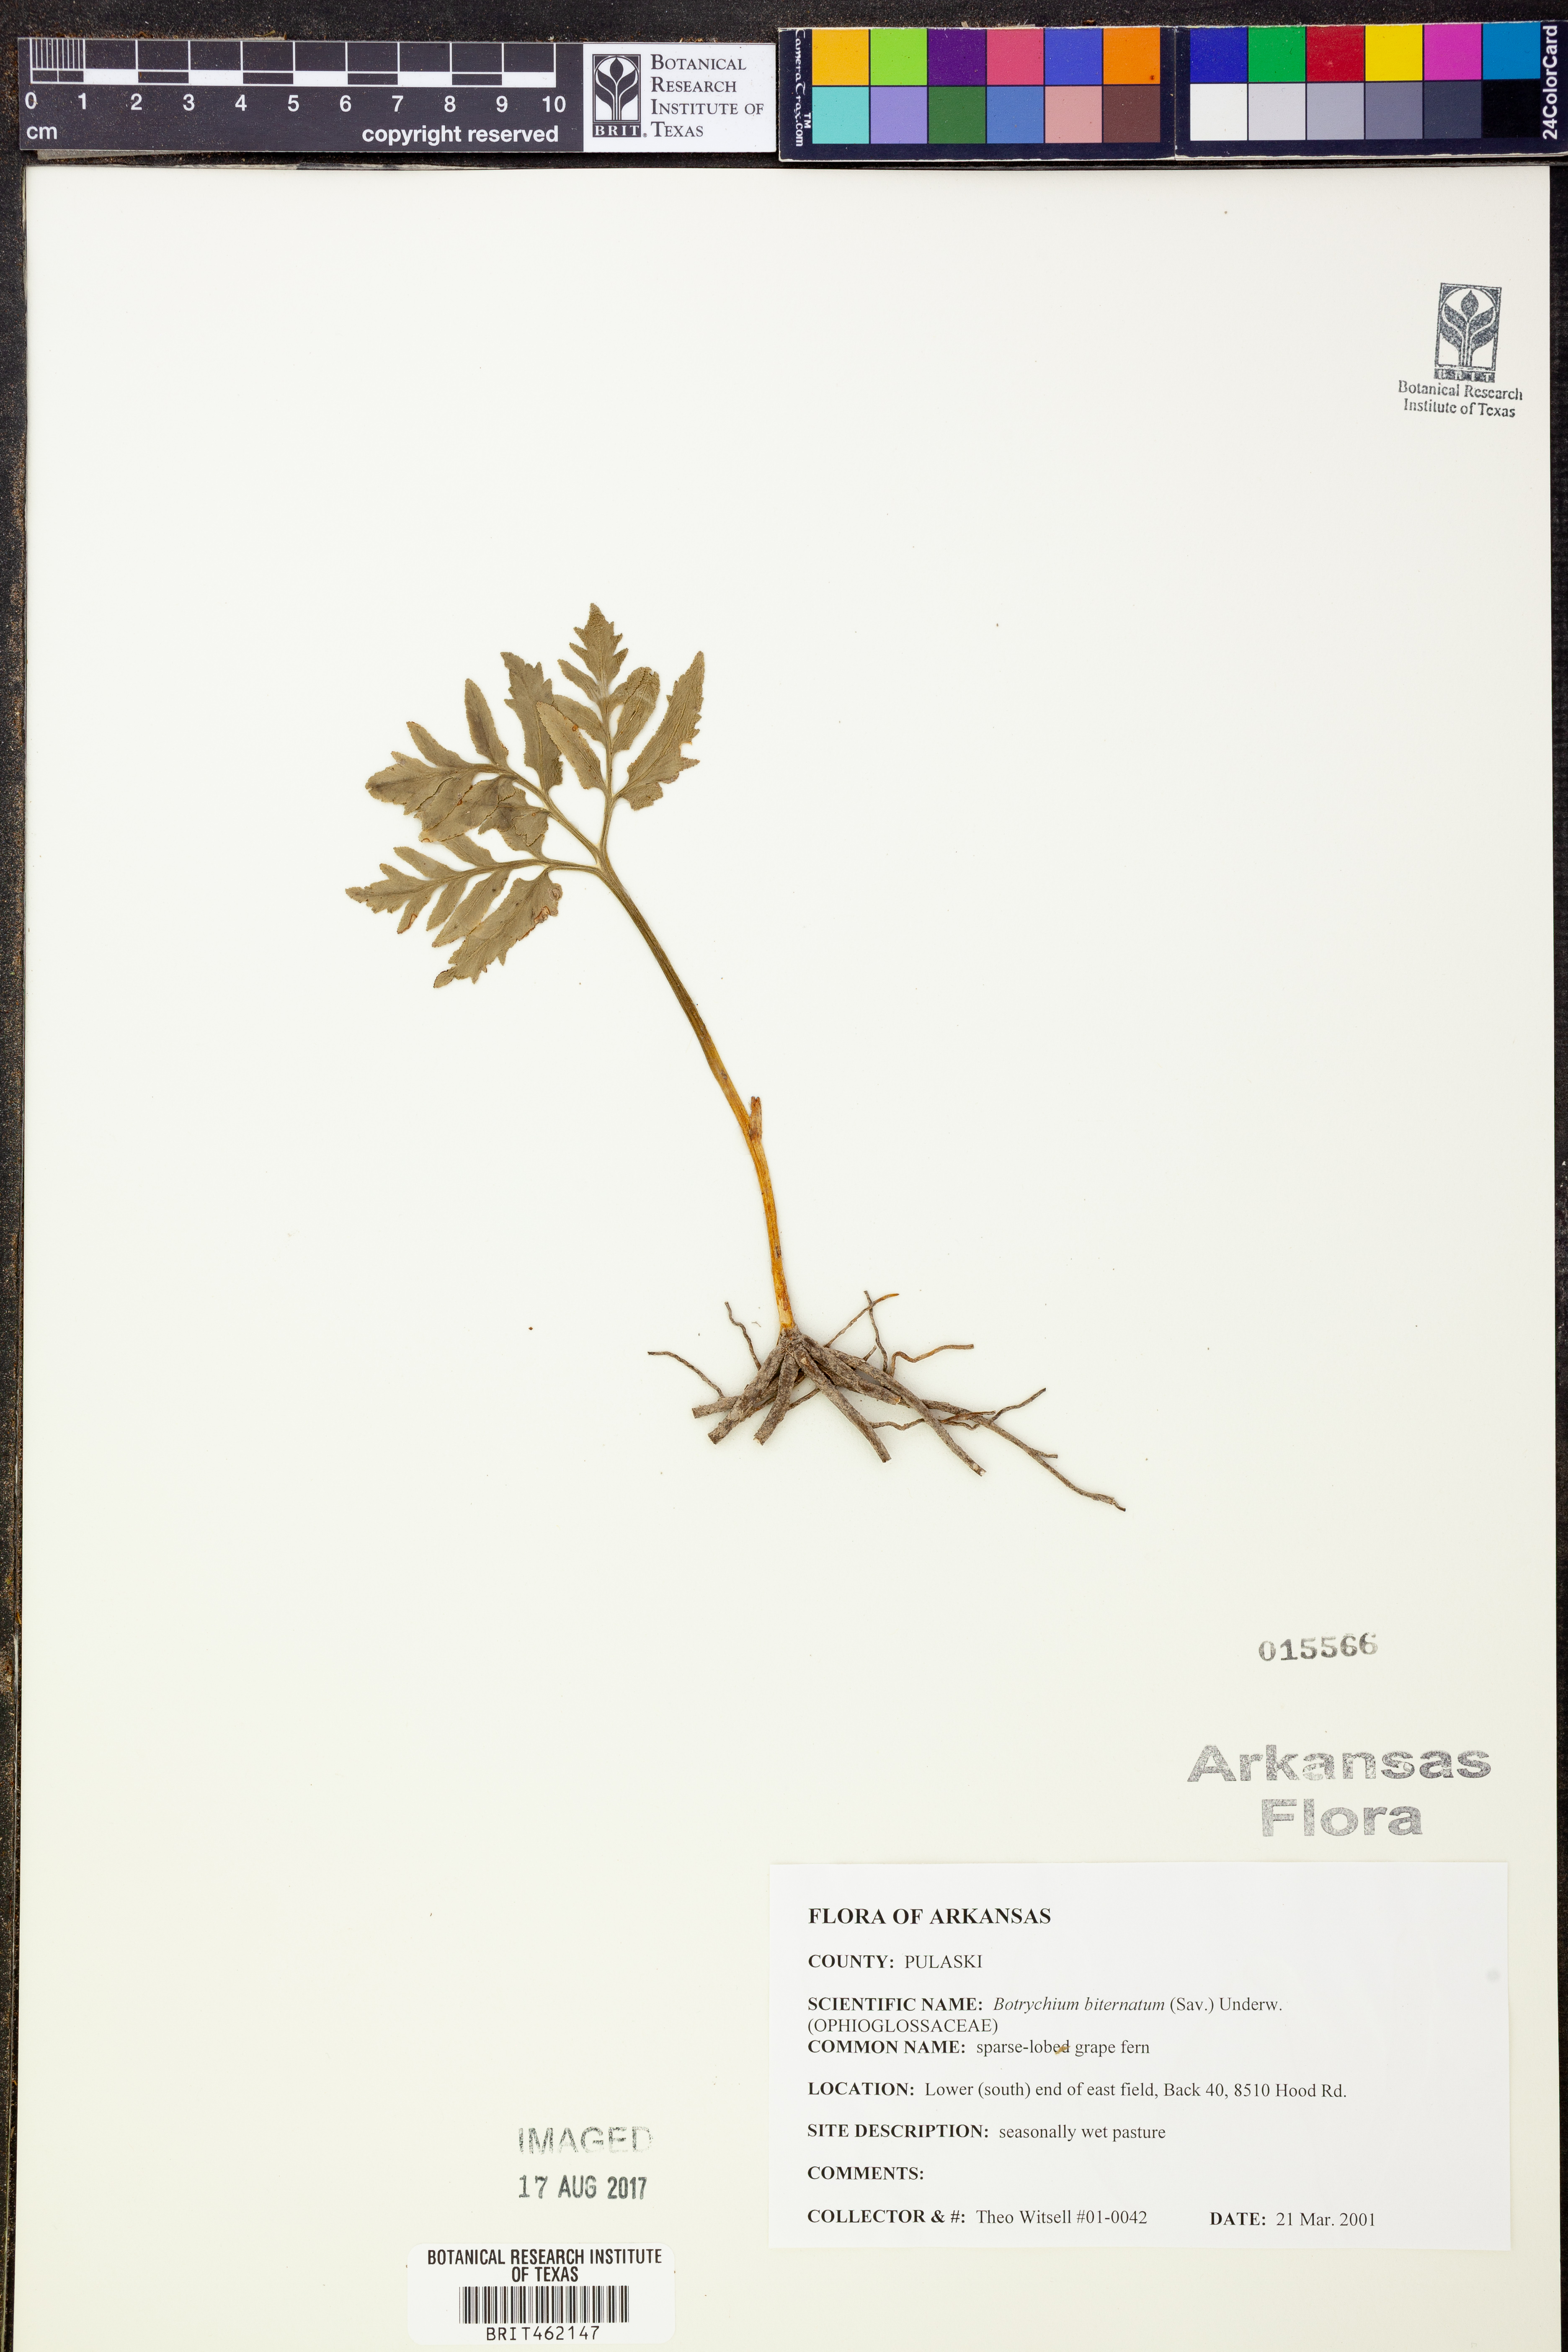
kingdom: Plantae
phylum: Tracheophyta
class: Polypodiopsida
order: Ophioglossales
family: Ophioglossaceae
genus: Sceptridium
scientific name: Sceptridium biternatum
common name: Sparse-lobed grapefern
